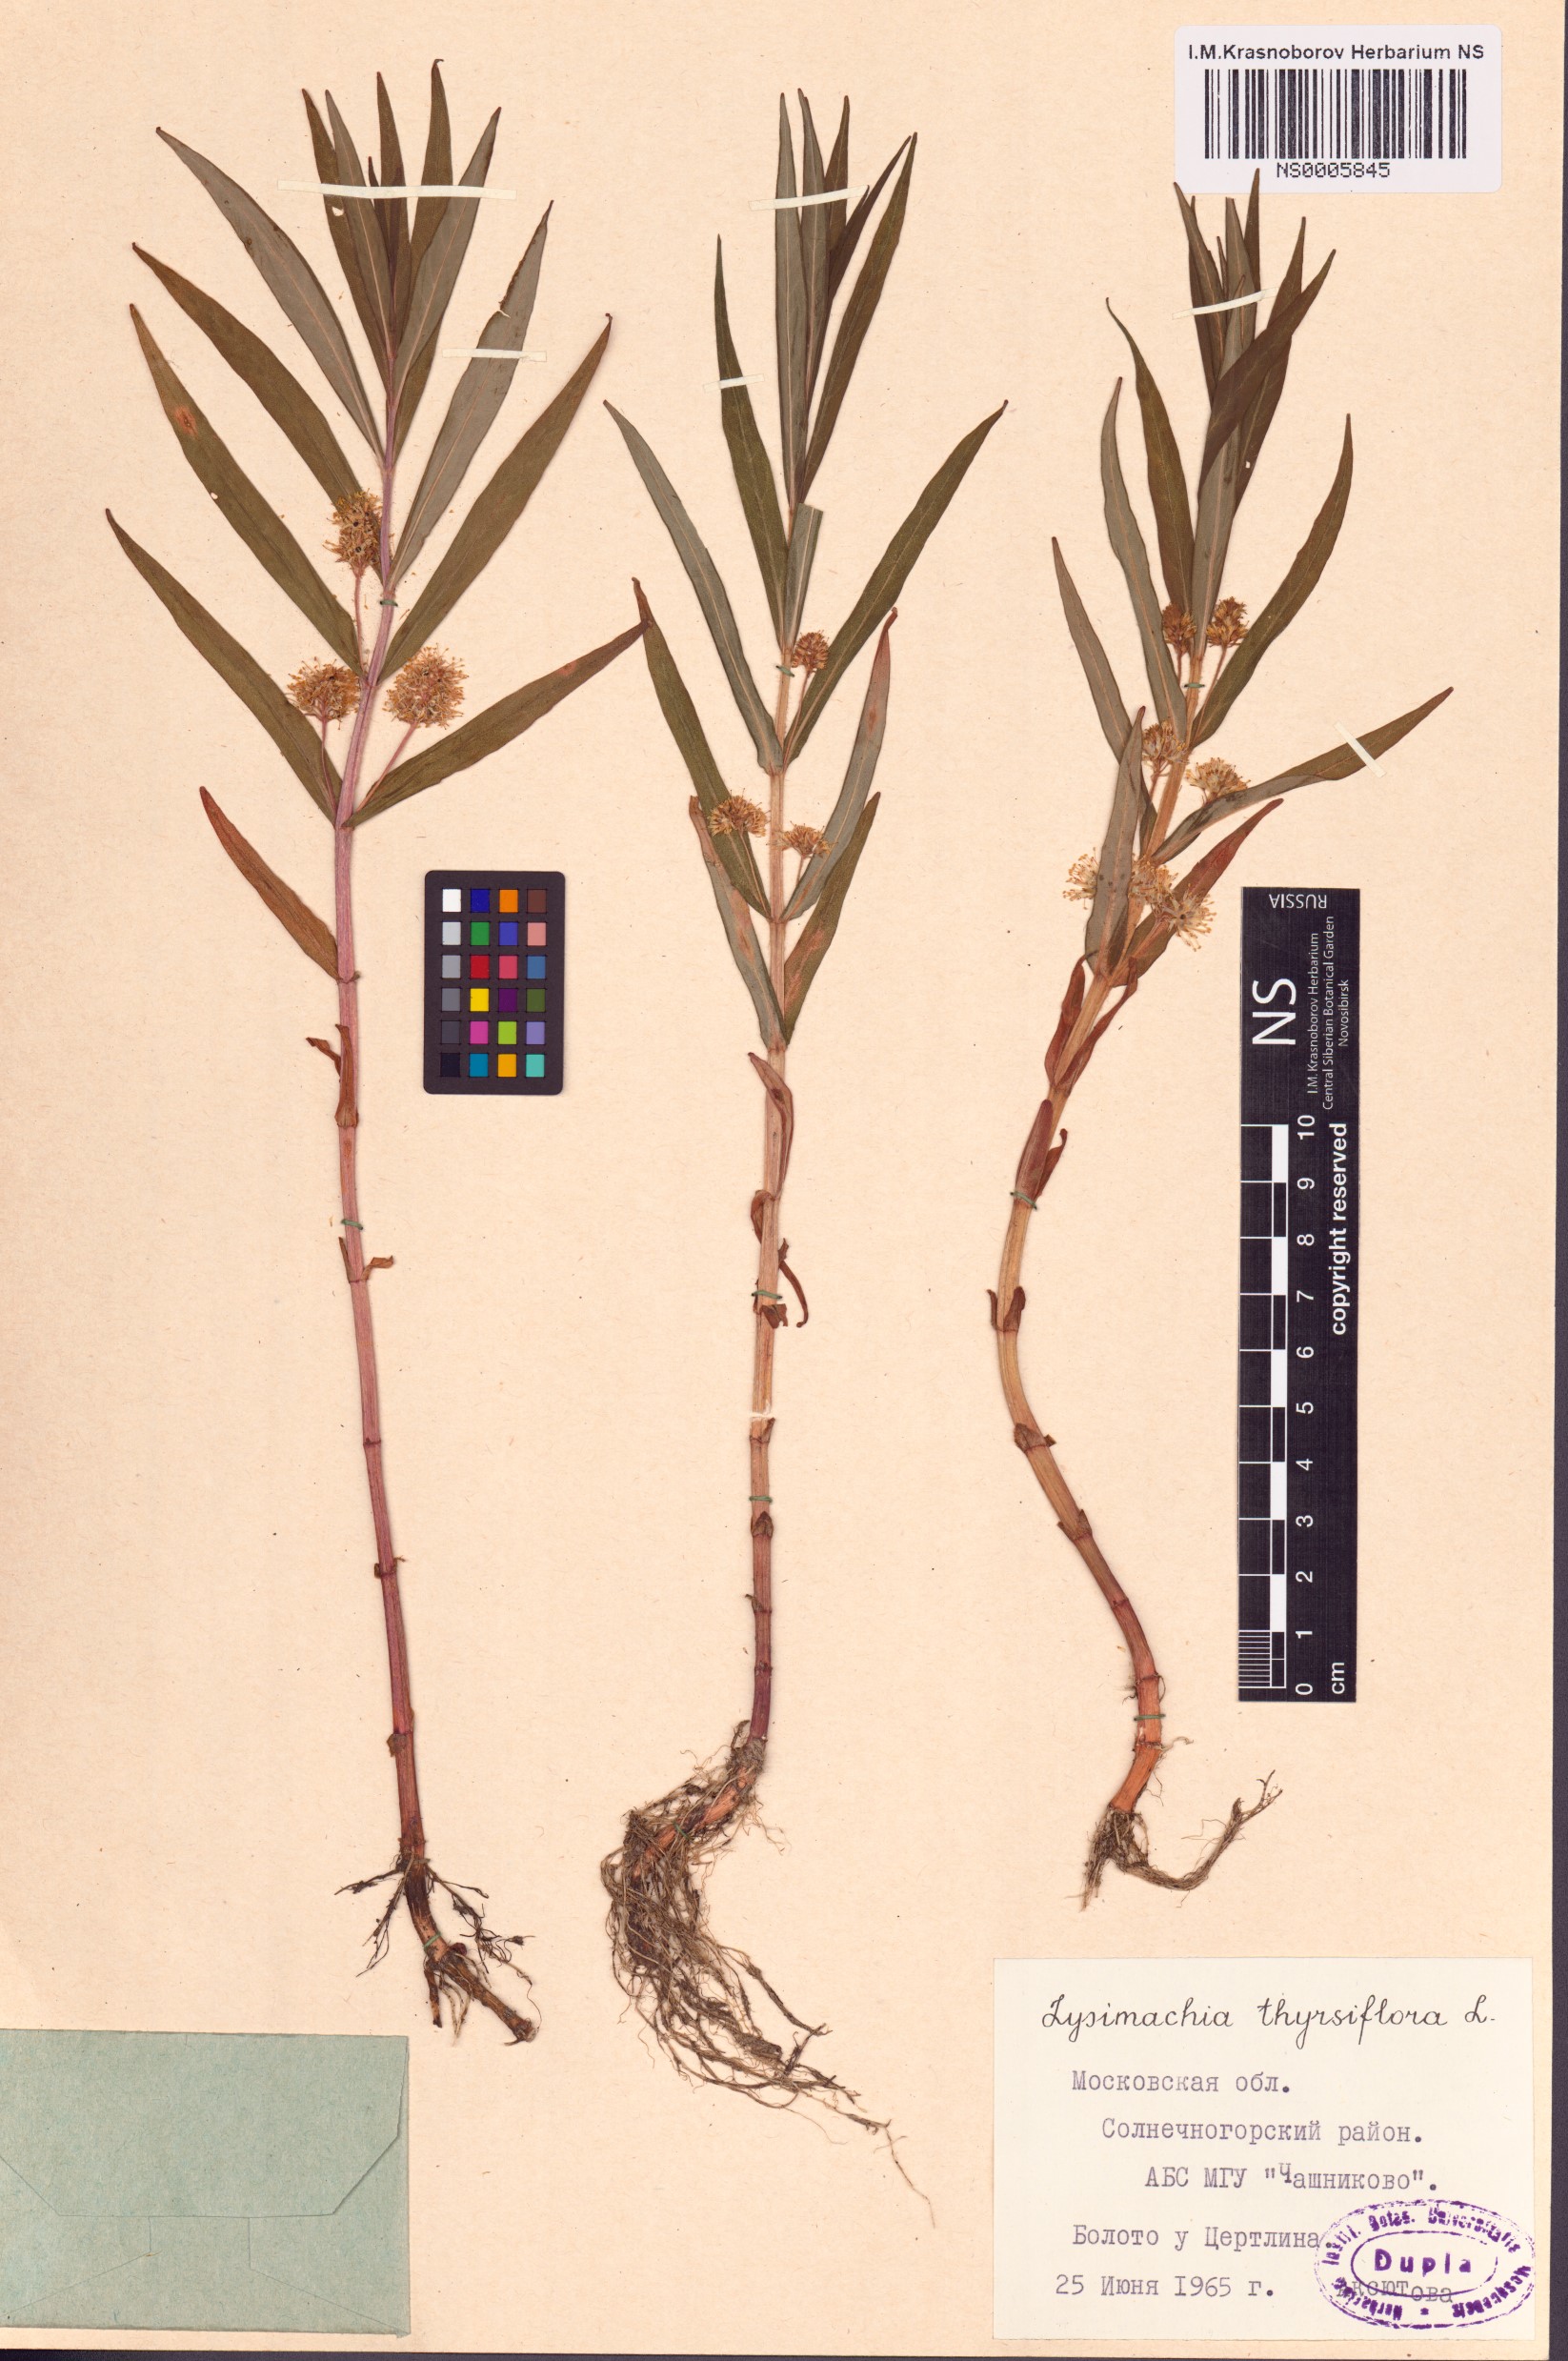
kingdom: Plantae
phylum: Tracheophyta
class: Magnoliopsida
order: Ericales
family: Primulaceae
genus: Lysimachia
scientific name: Lysimachia thyrsiflora
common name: Tufted loosestrife
